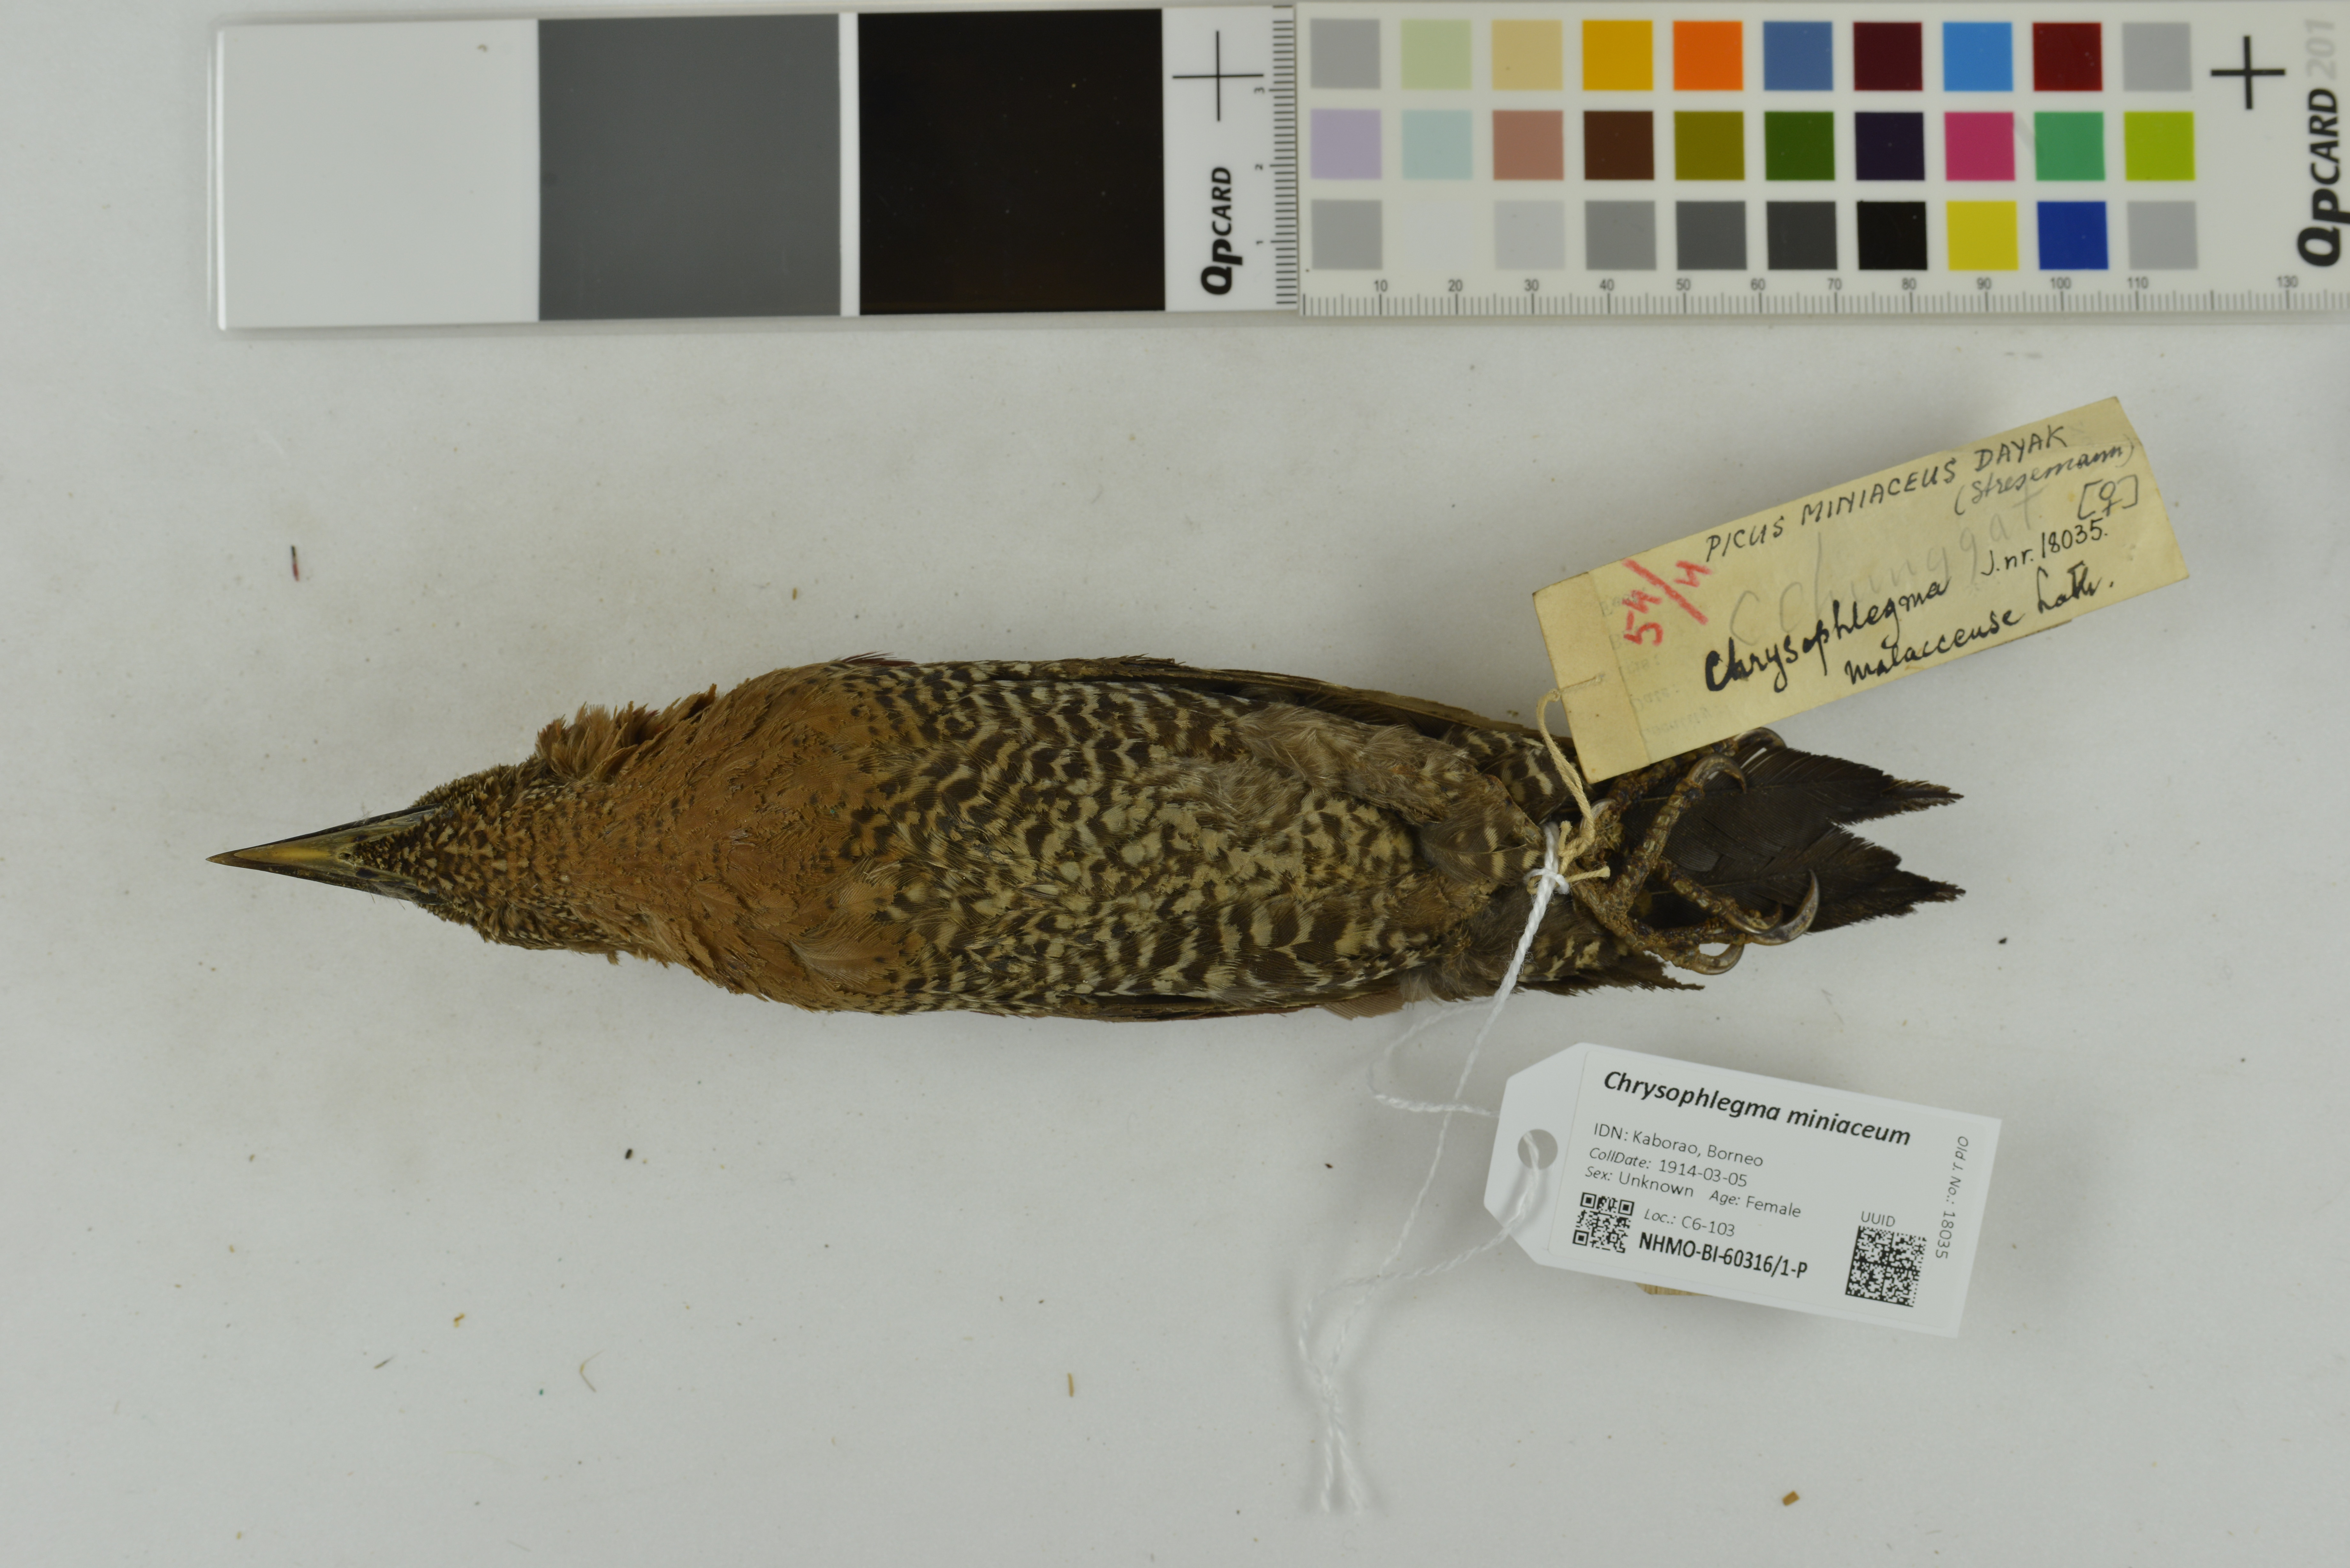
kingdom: Animalia
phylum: Chordata
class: Aves
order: Piciformes
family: Picidae
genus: Chrysophlegma
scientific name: Chrysophlegma miniaceum
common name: Banded woodpecker
